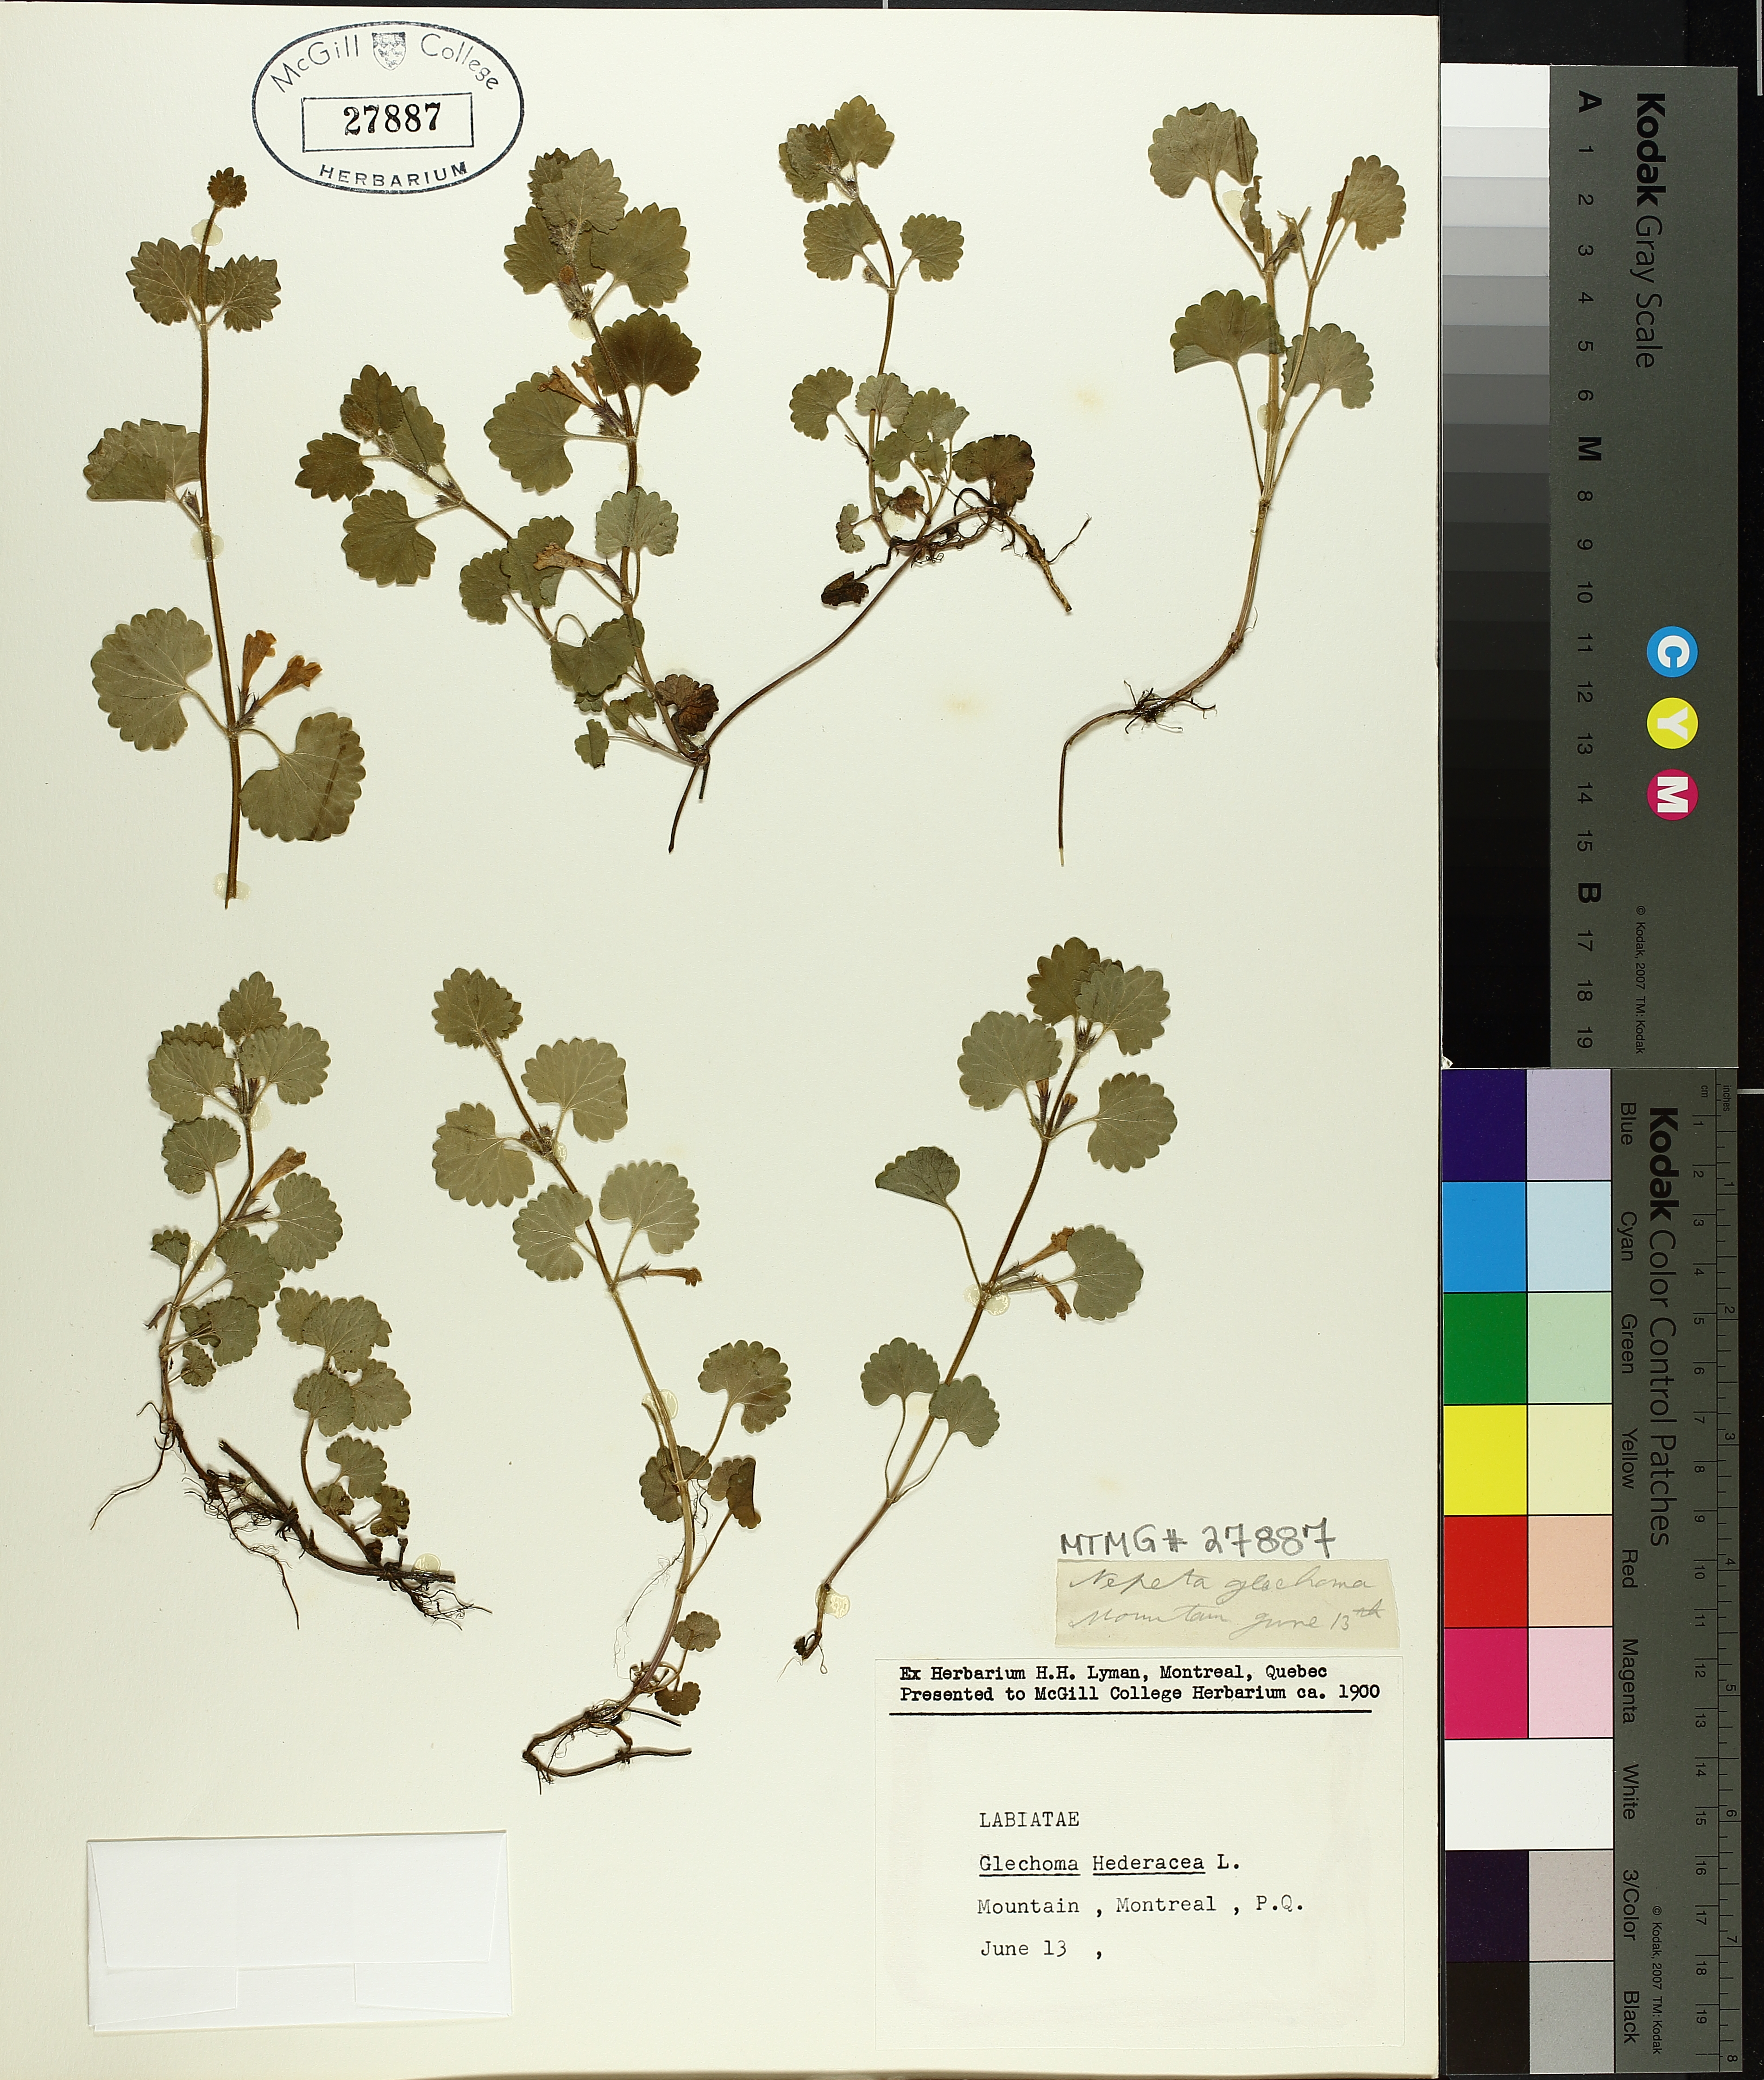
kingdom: Plantae
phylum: Tracheophyta
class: Magnoliopsida
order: Lamiales
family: Lamiaceae
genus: Glechoma
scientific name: Glechoma hederacea
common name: Ground ivy
